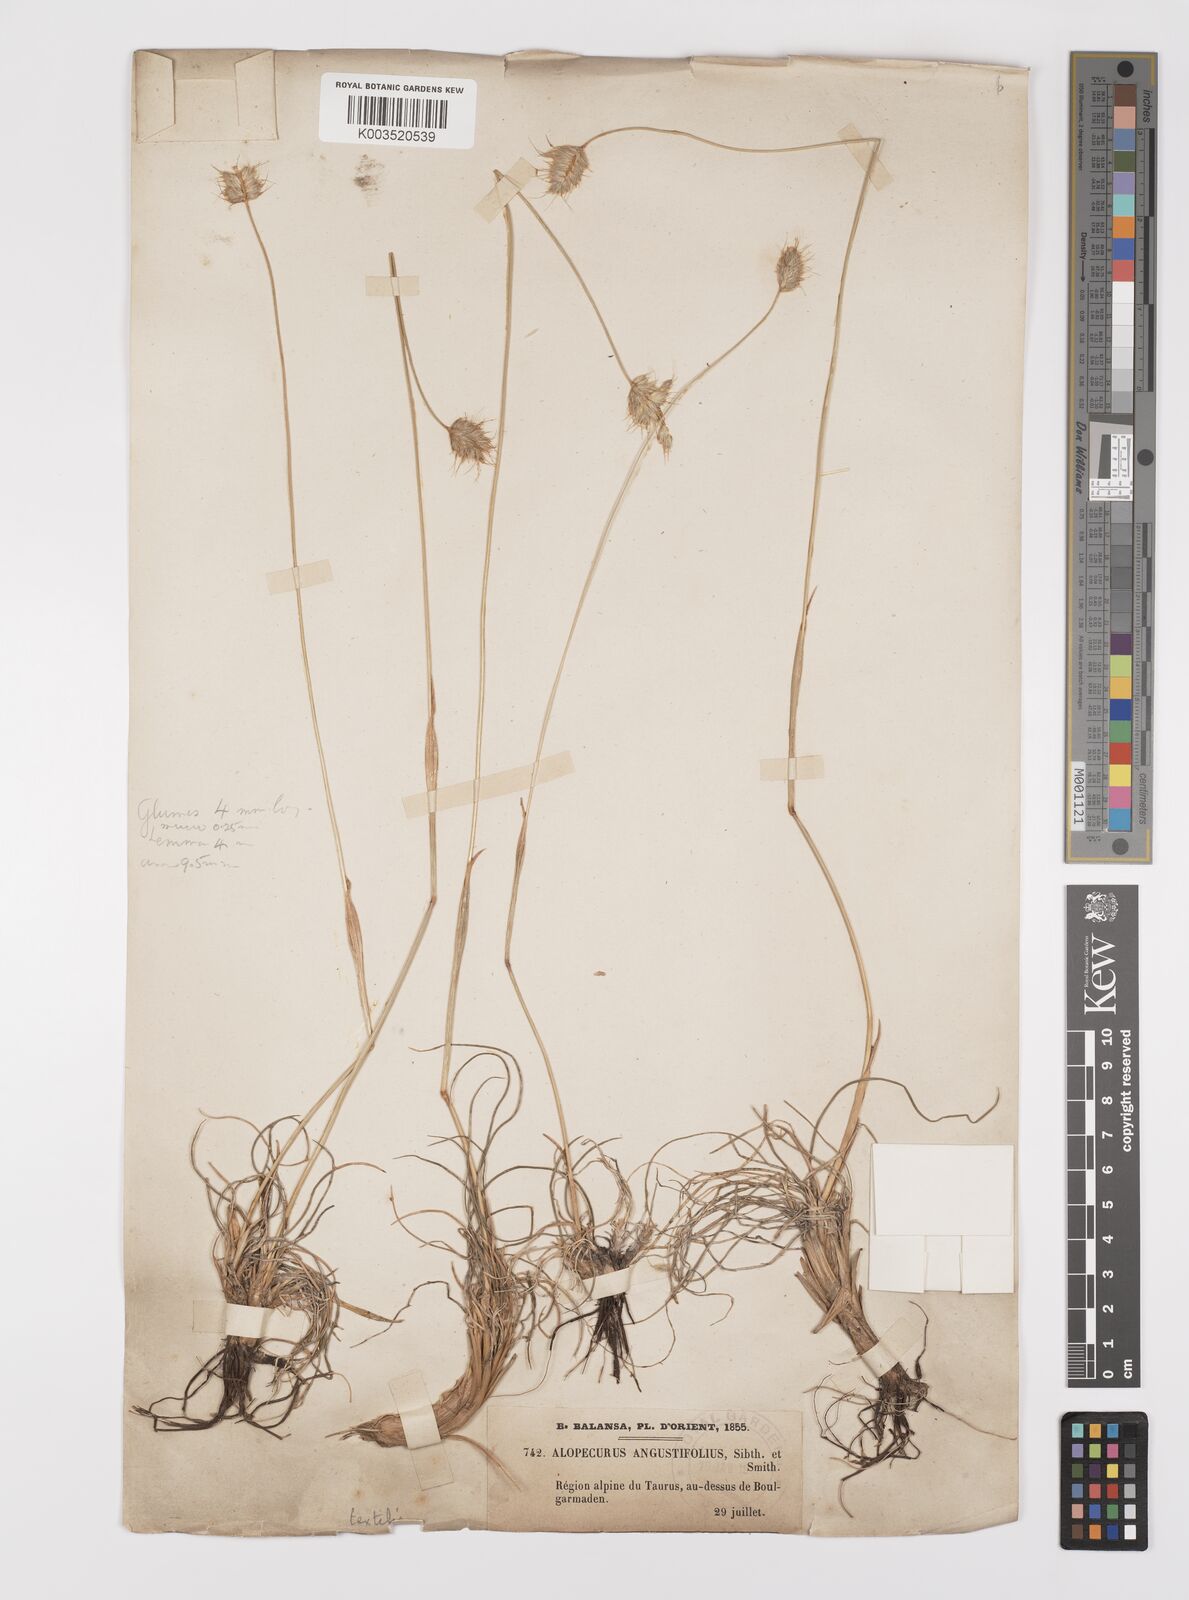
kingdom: Plantae
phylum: Tracheophyta
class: Liliopsida
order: Poales
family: Poaceae
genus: Alopecurus
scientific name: Alopecurus textilis
